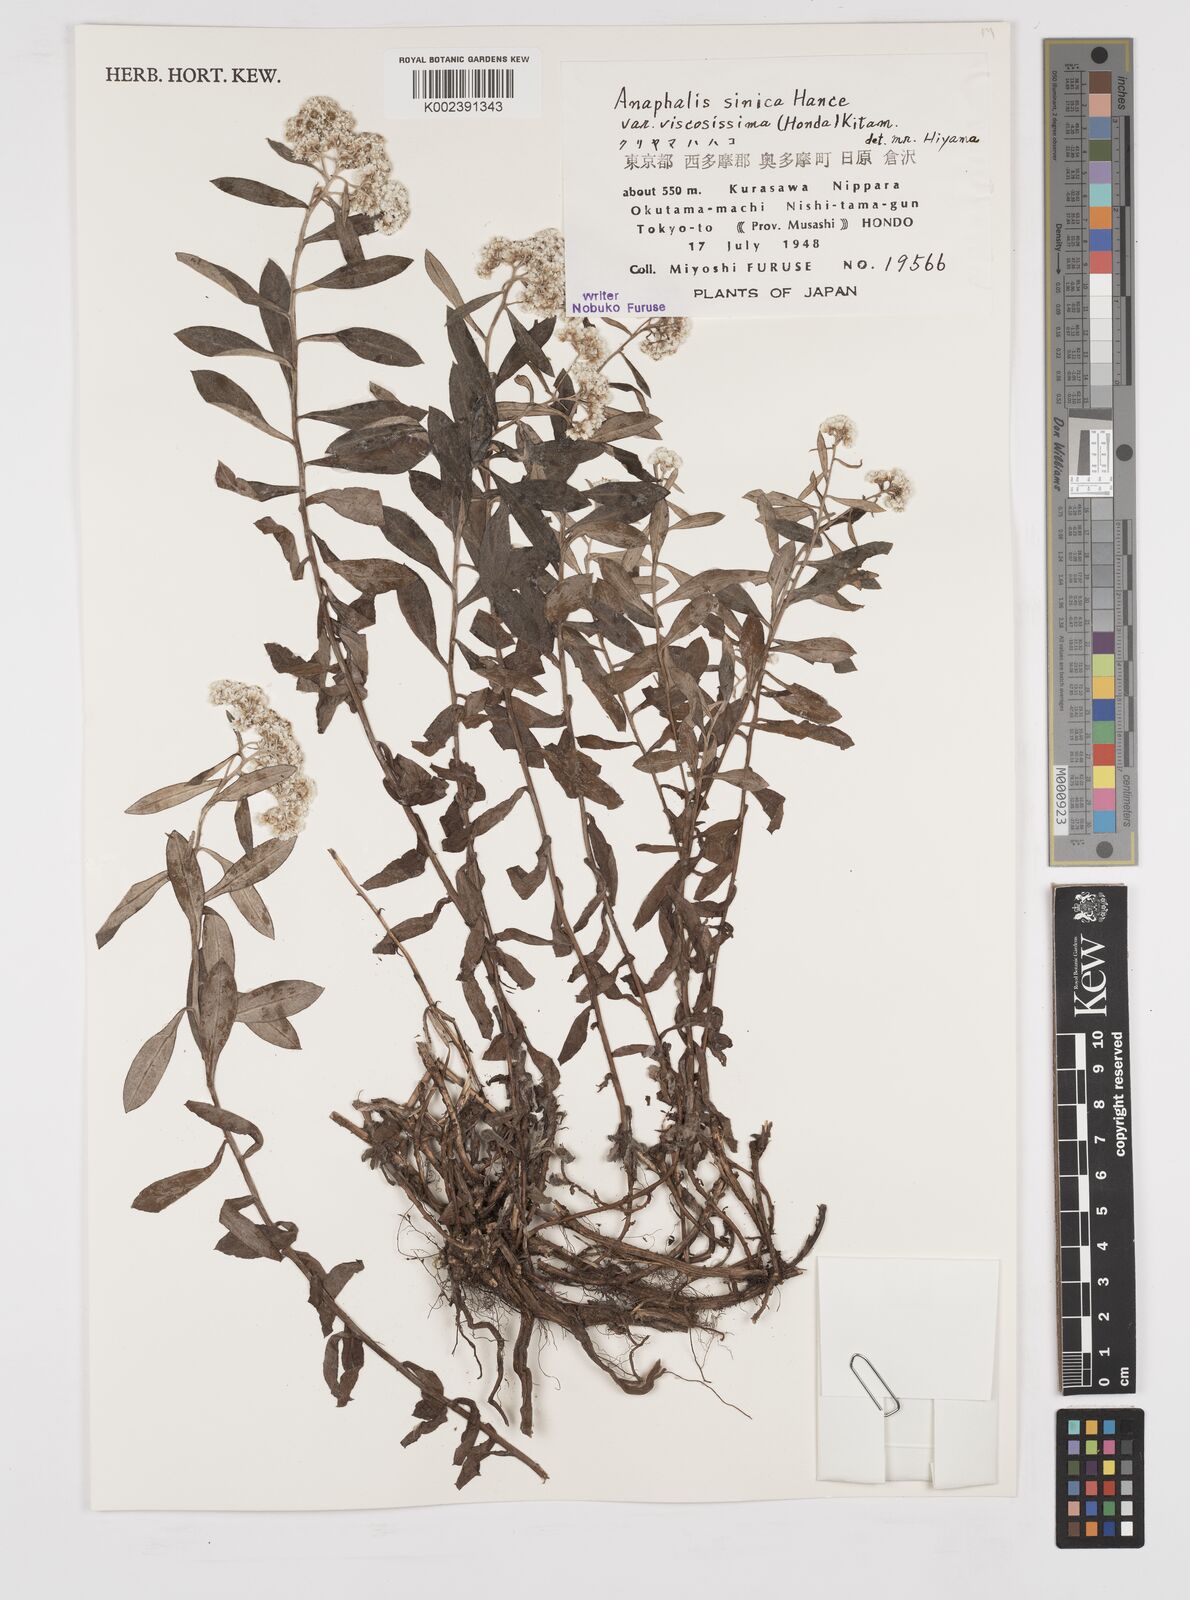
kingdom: Plantae
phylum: Tracheophyta
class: Magnoliopsida
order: Asterales
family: Asteraceae
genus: Anaphalis
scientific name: Anaphalis sinica
